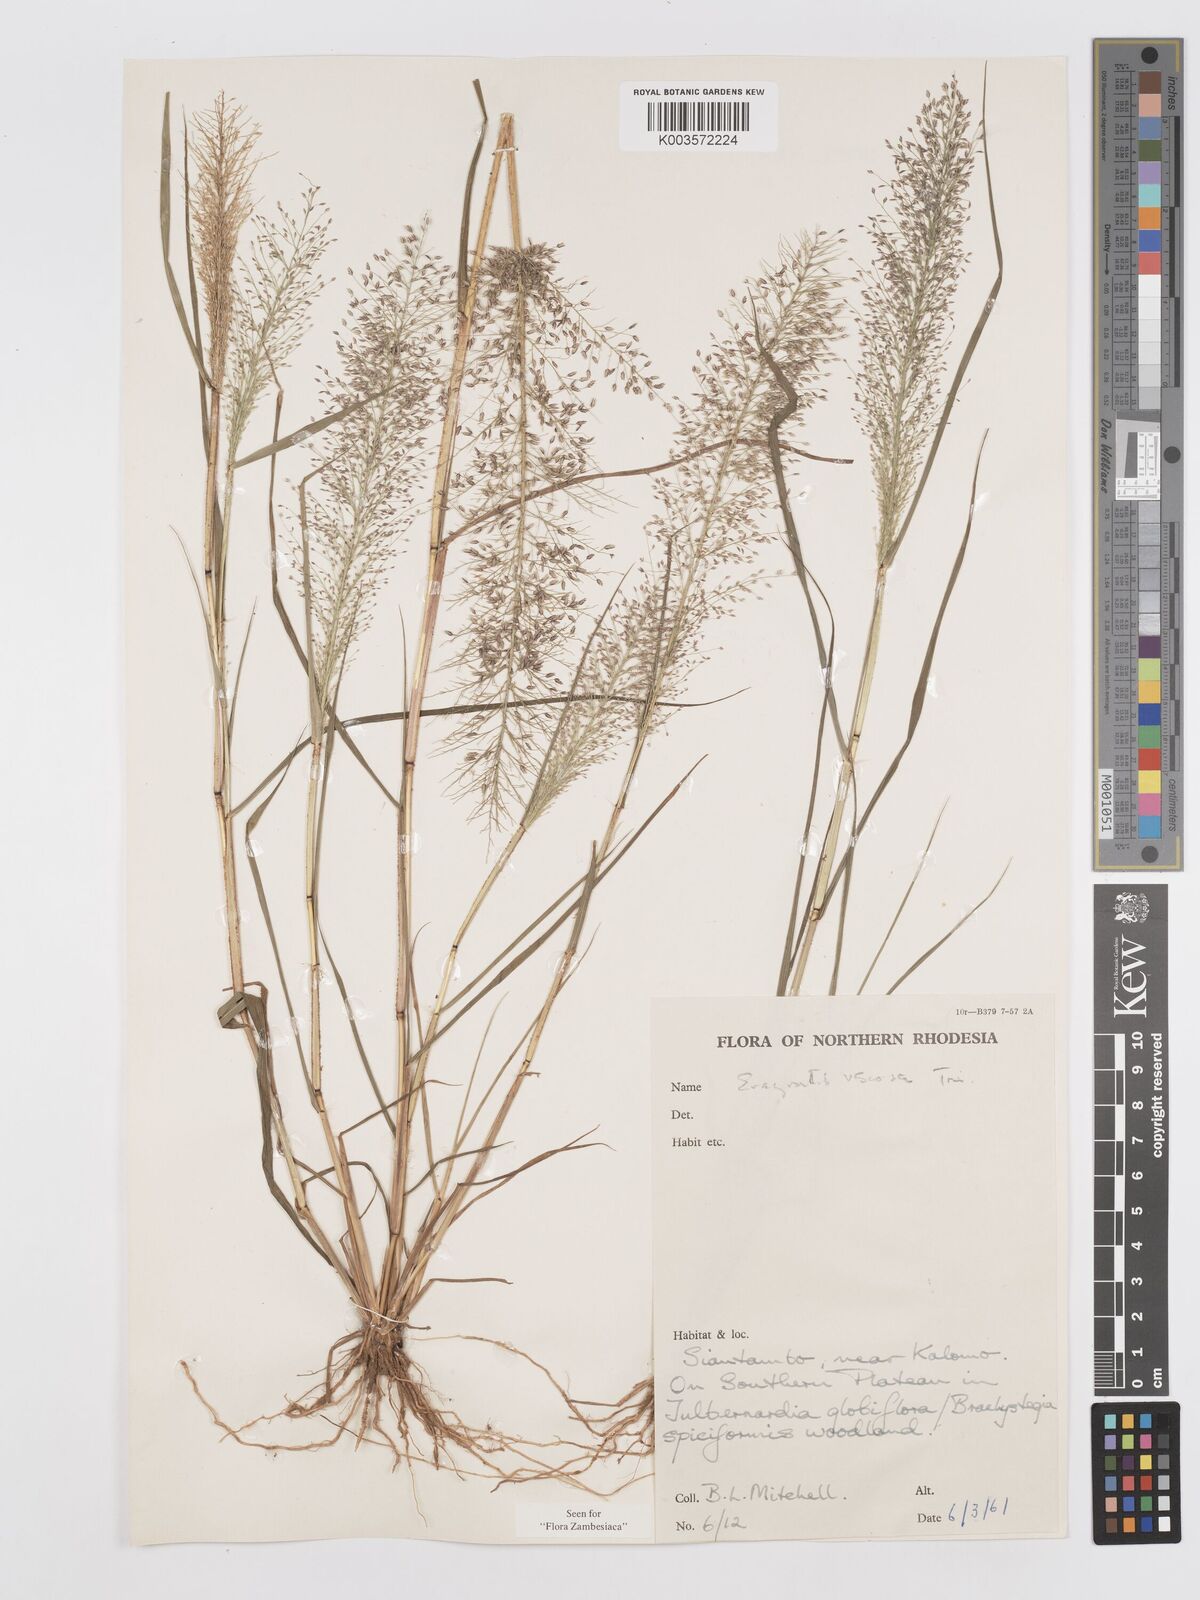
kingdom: Plantae
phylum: Tracheophyta
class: Liliopsida
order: Poales
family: Poaceae
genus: Eragrostis
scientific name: Eragrostis
